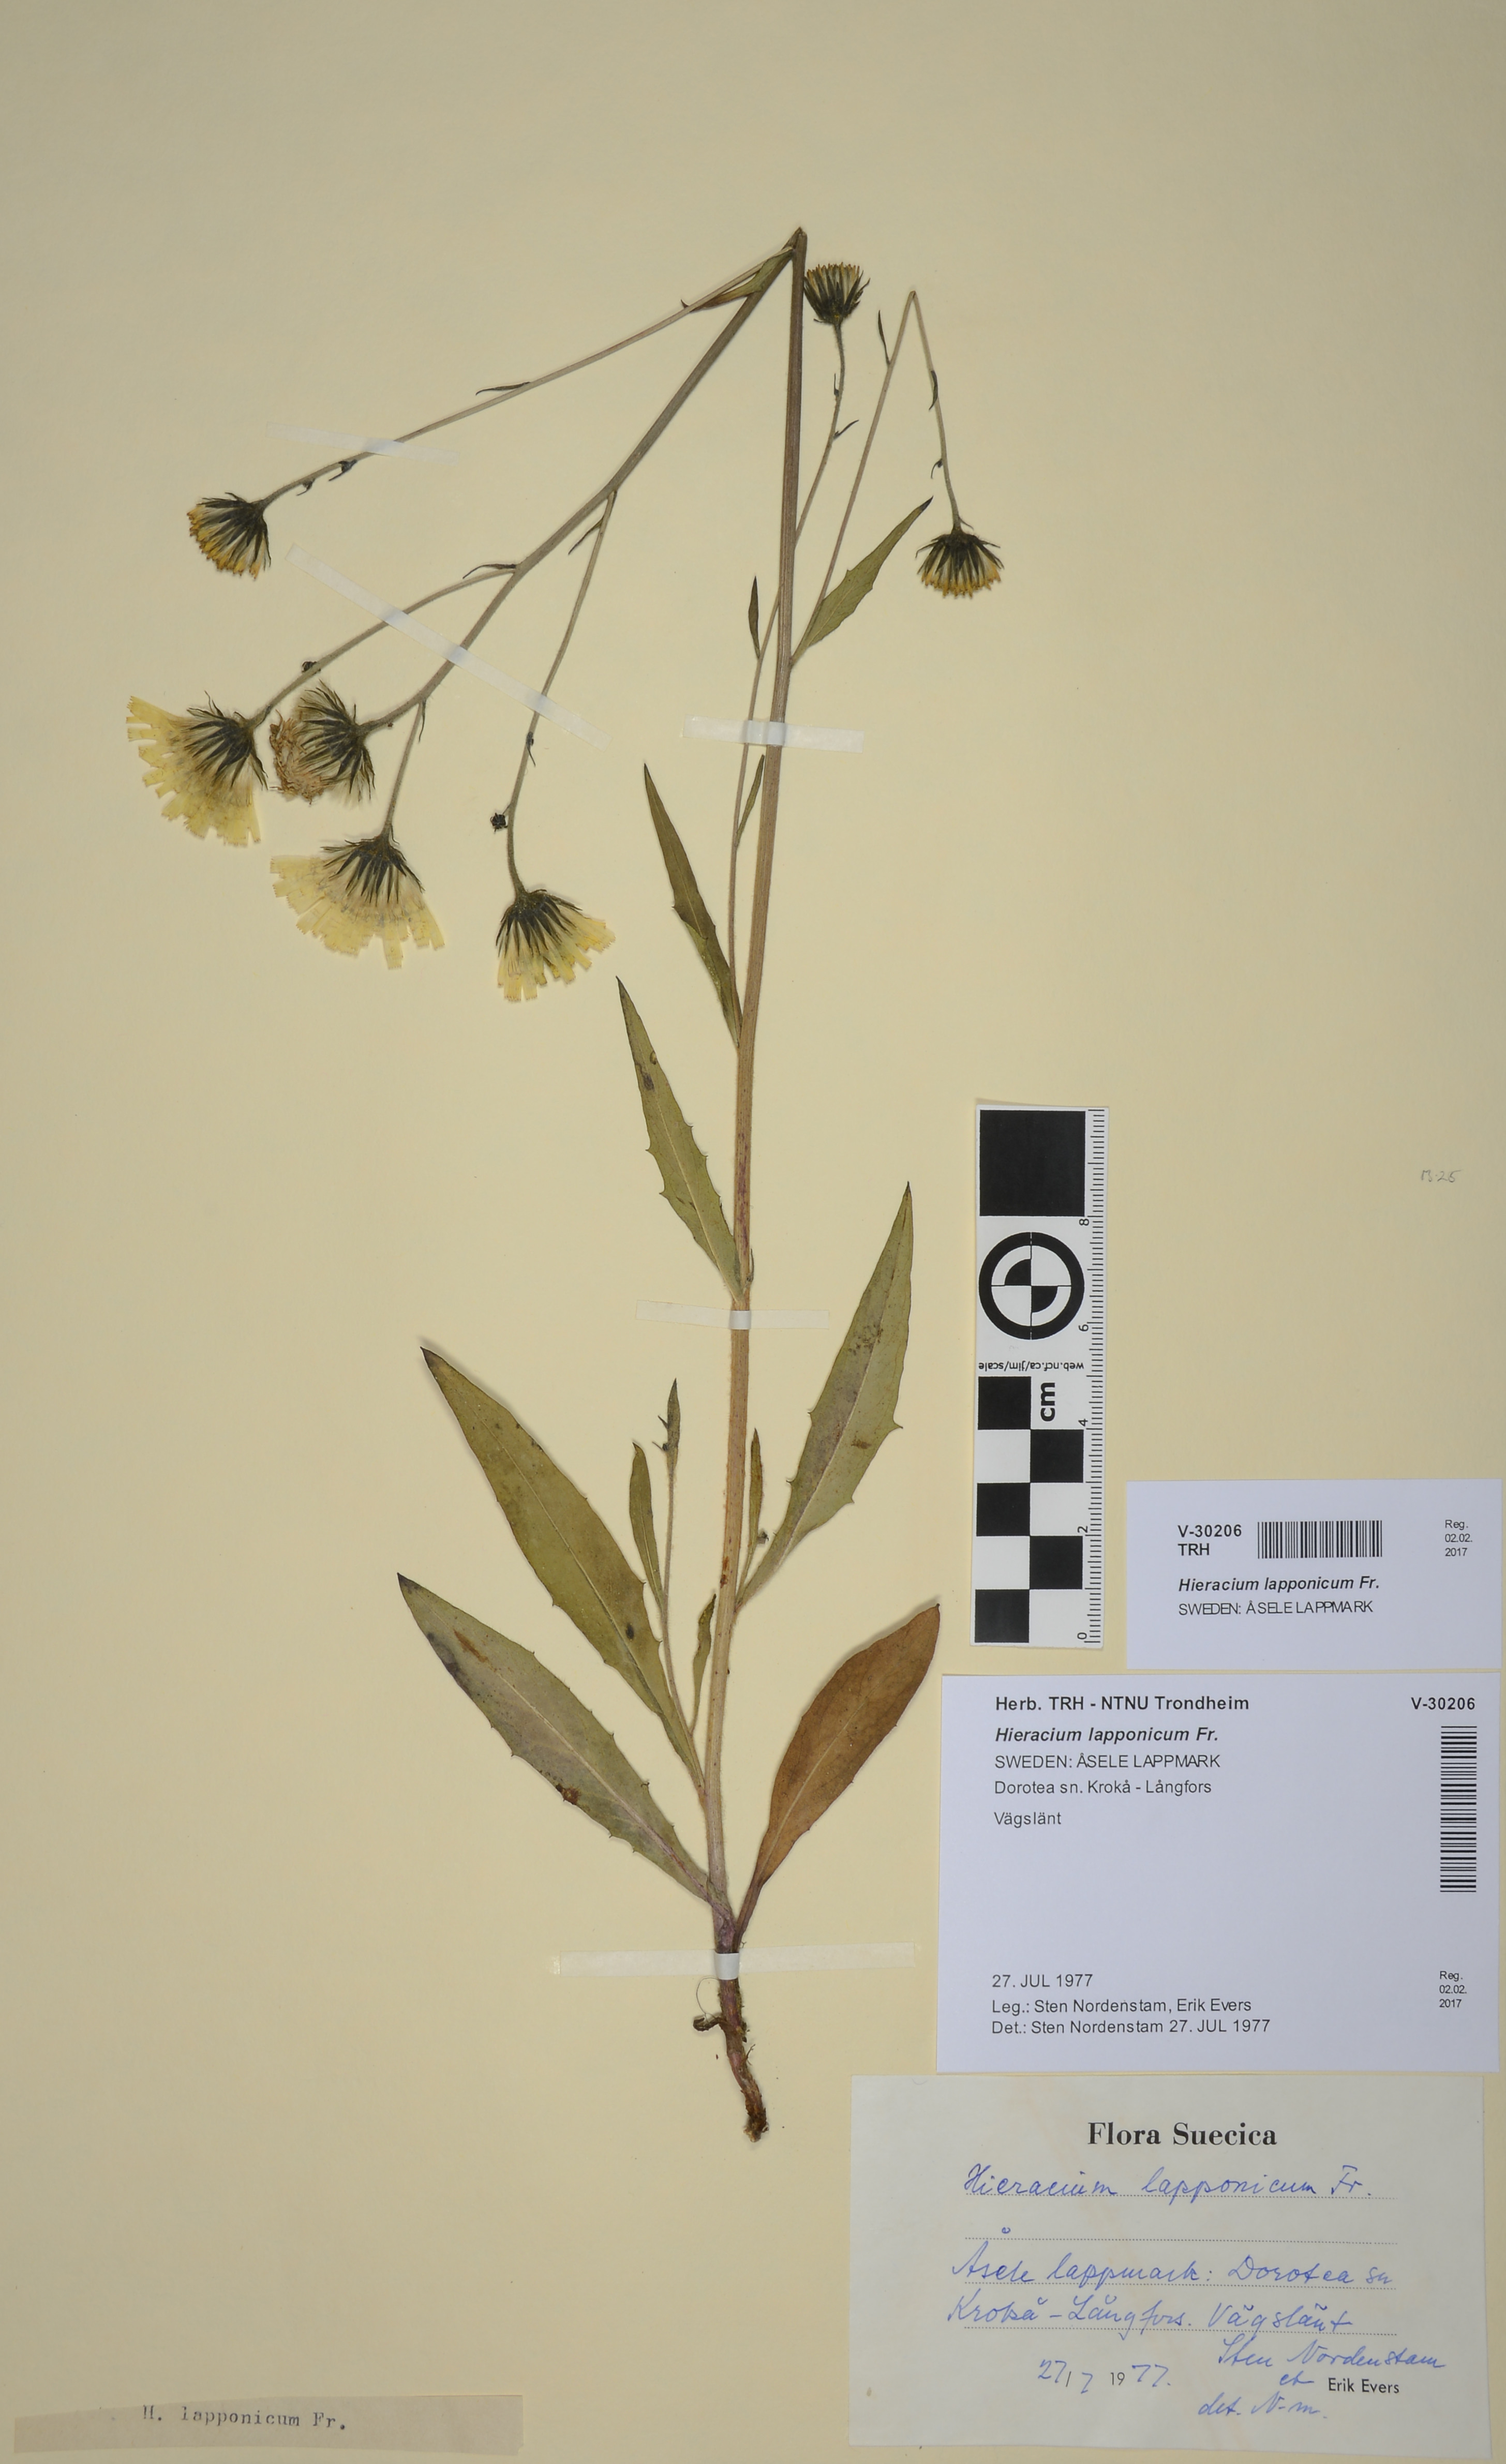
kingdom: Plantae
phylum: Tracheophyta
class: Magnoliopsida
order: Asterales
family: Asteraceae
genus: Hieracium
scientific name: Hieracium lapponicum
